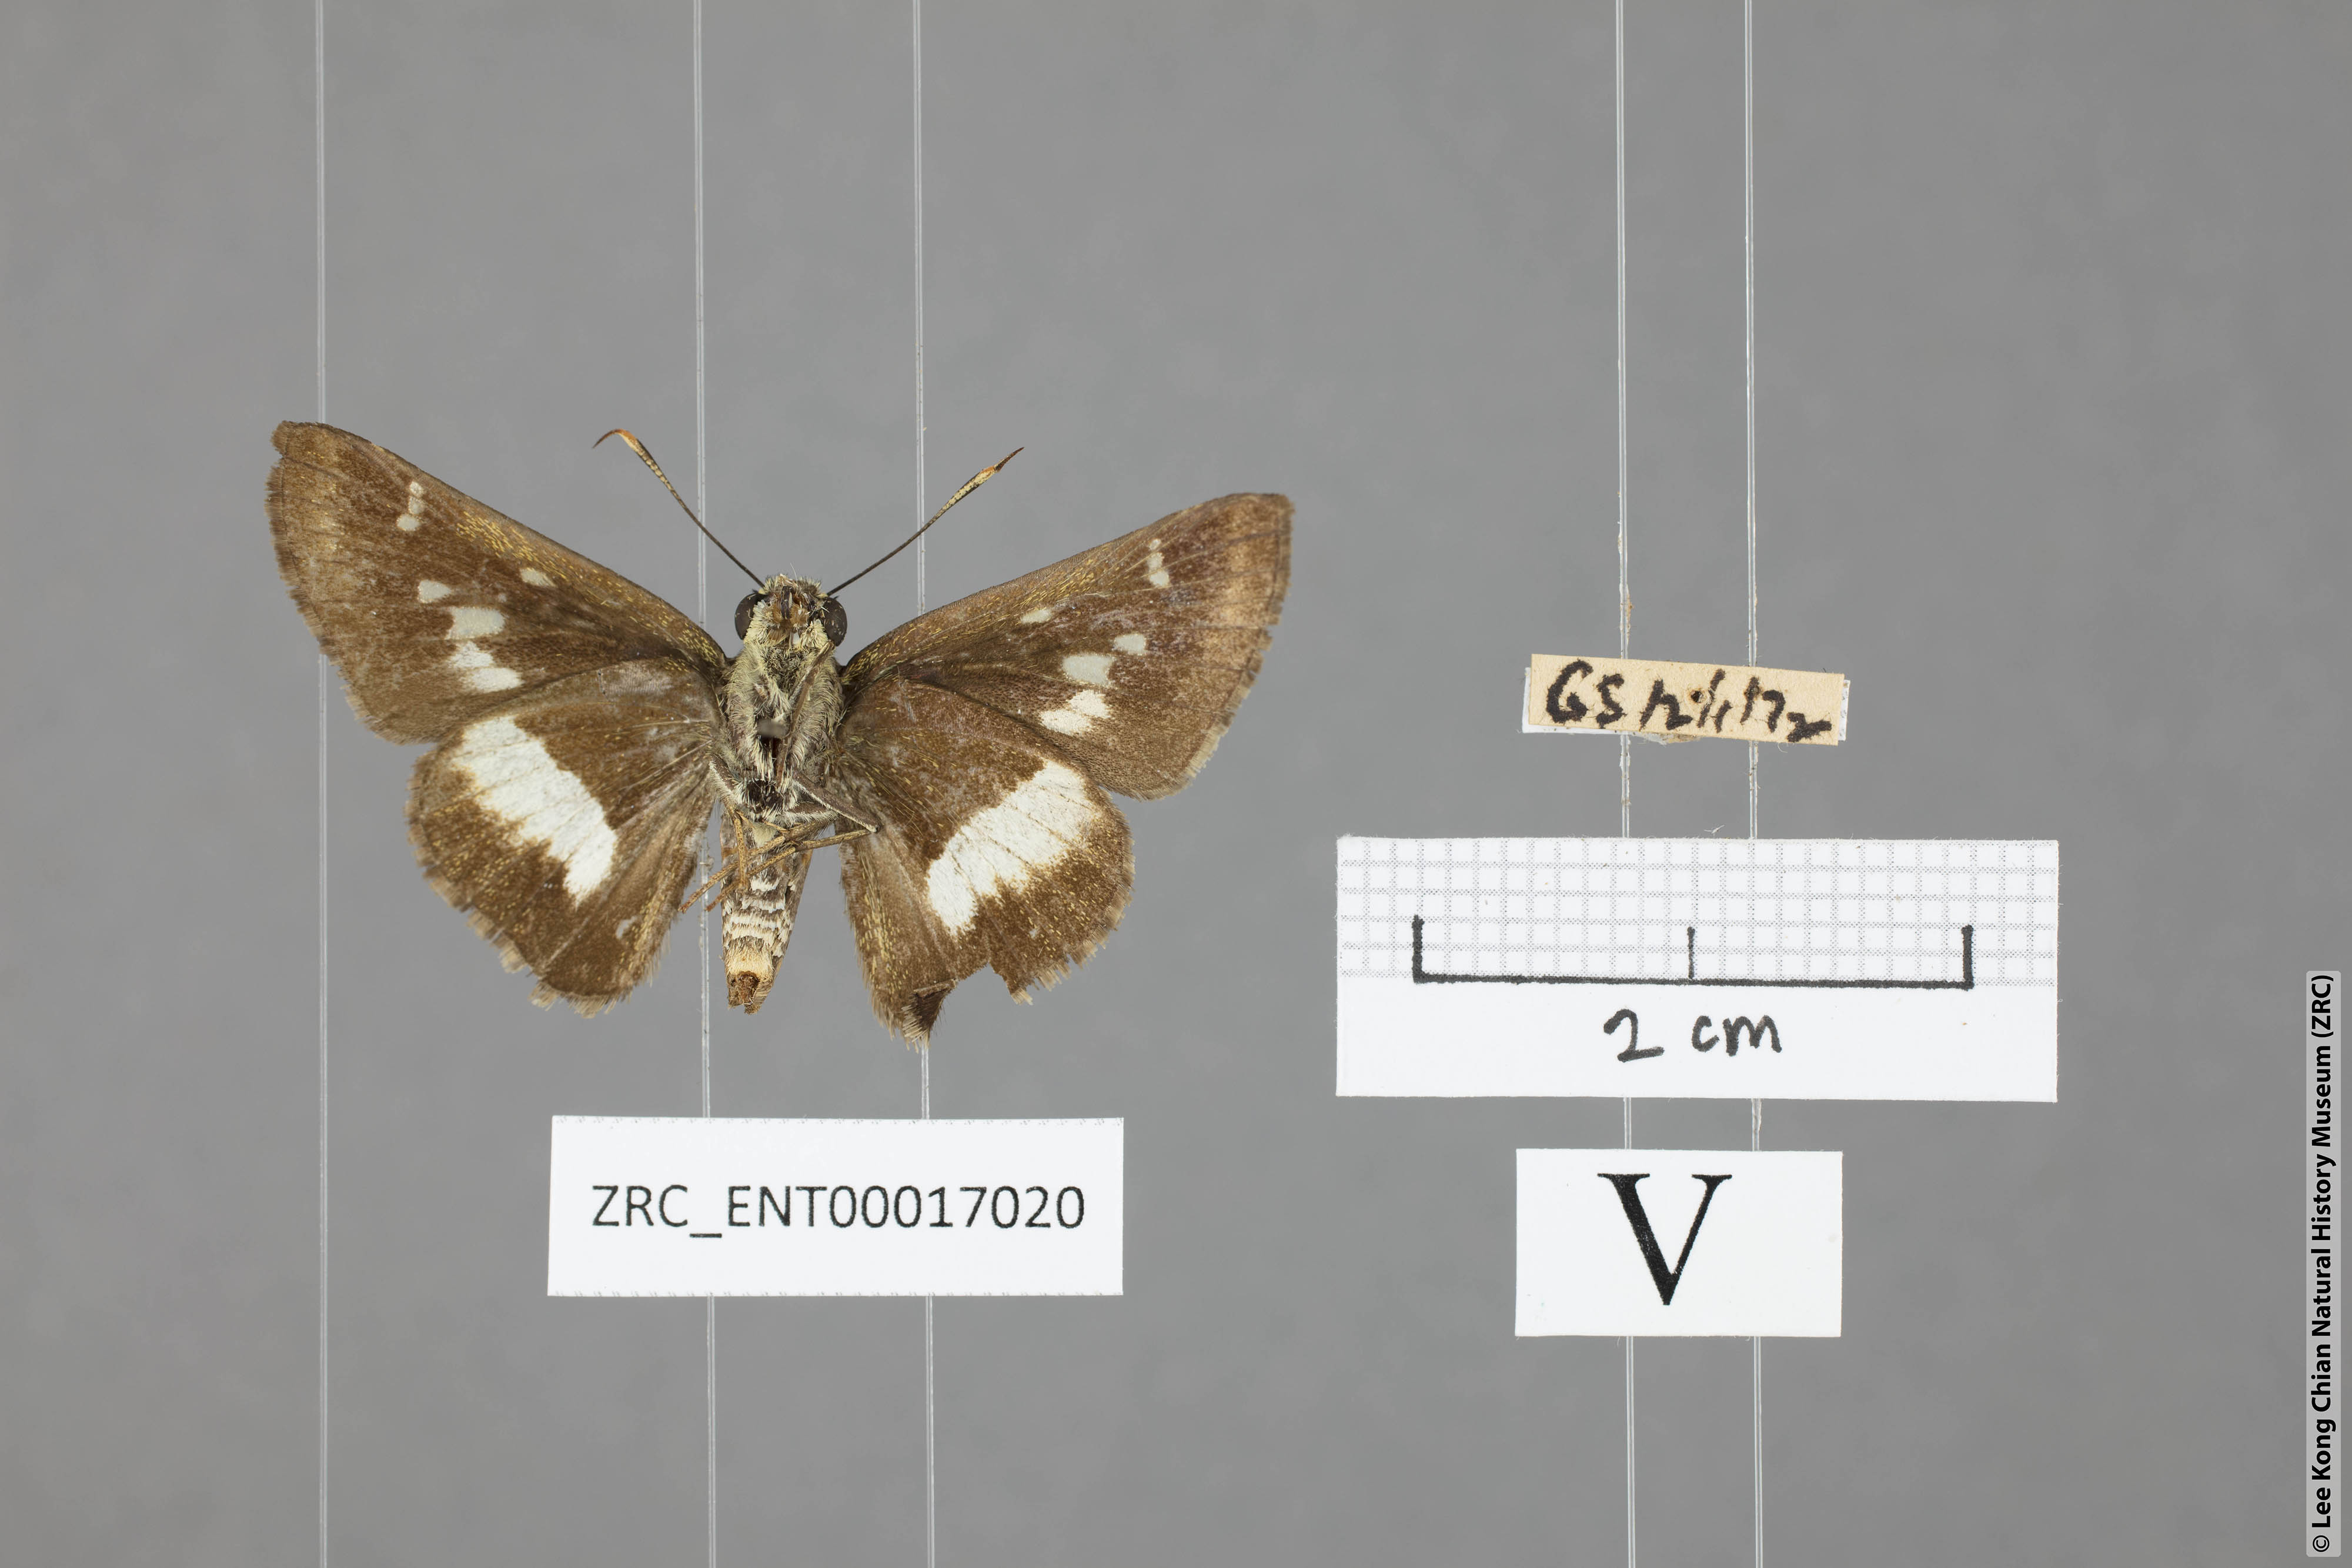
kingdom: Animalia
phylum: Arthropoda
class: Insecta
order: Lepidoptera
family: Hesperiidae
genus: Halpe
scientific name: Halpe
